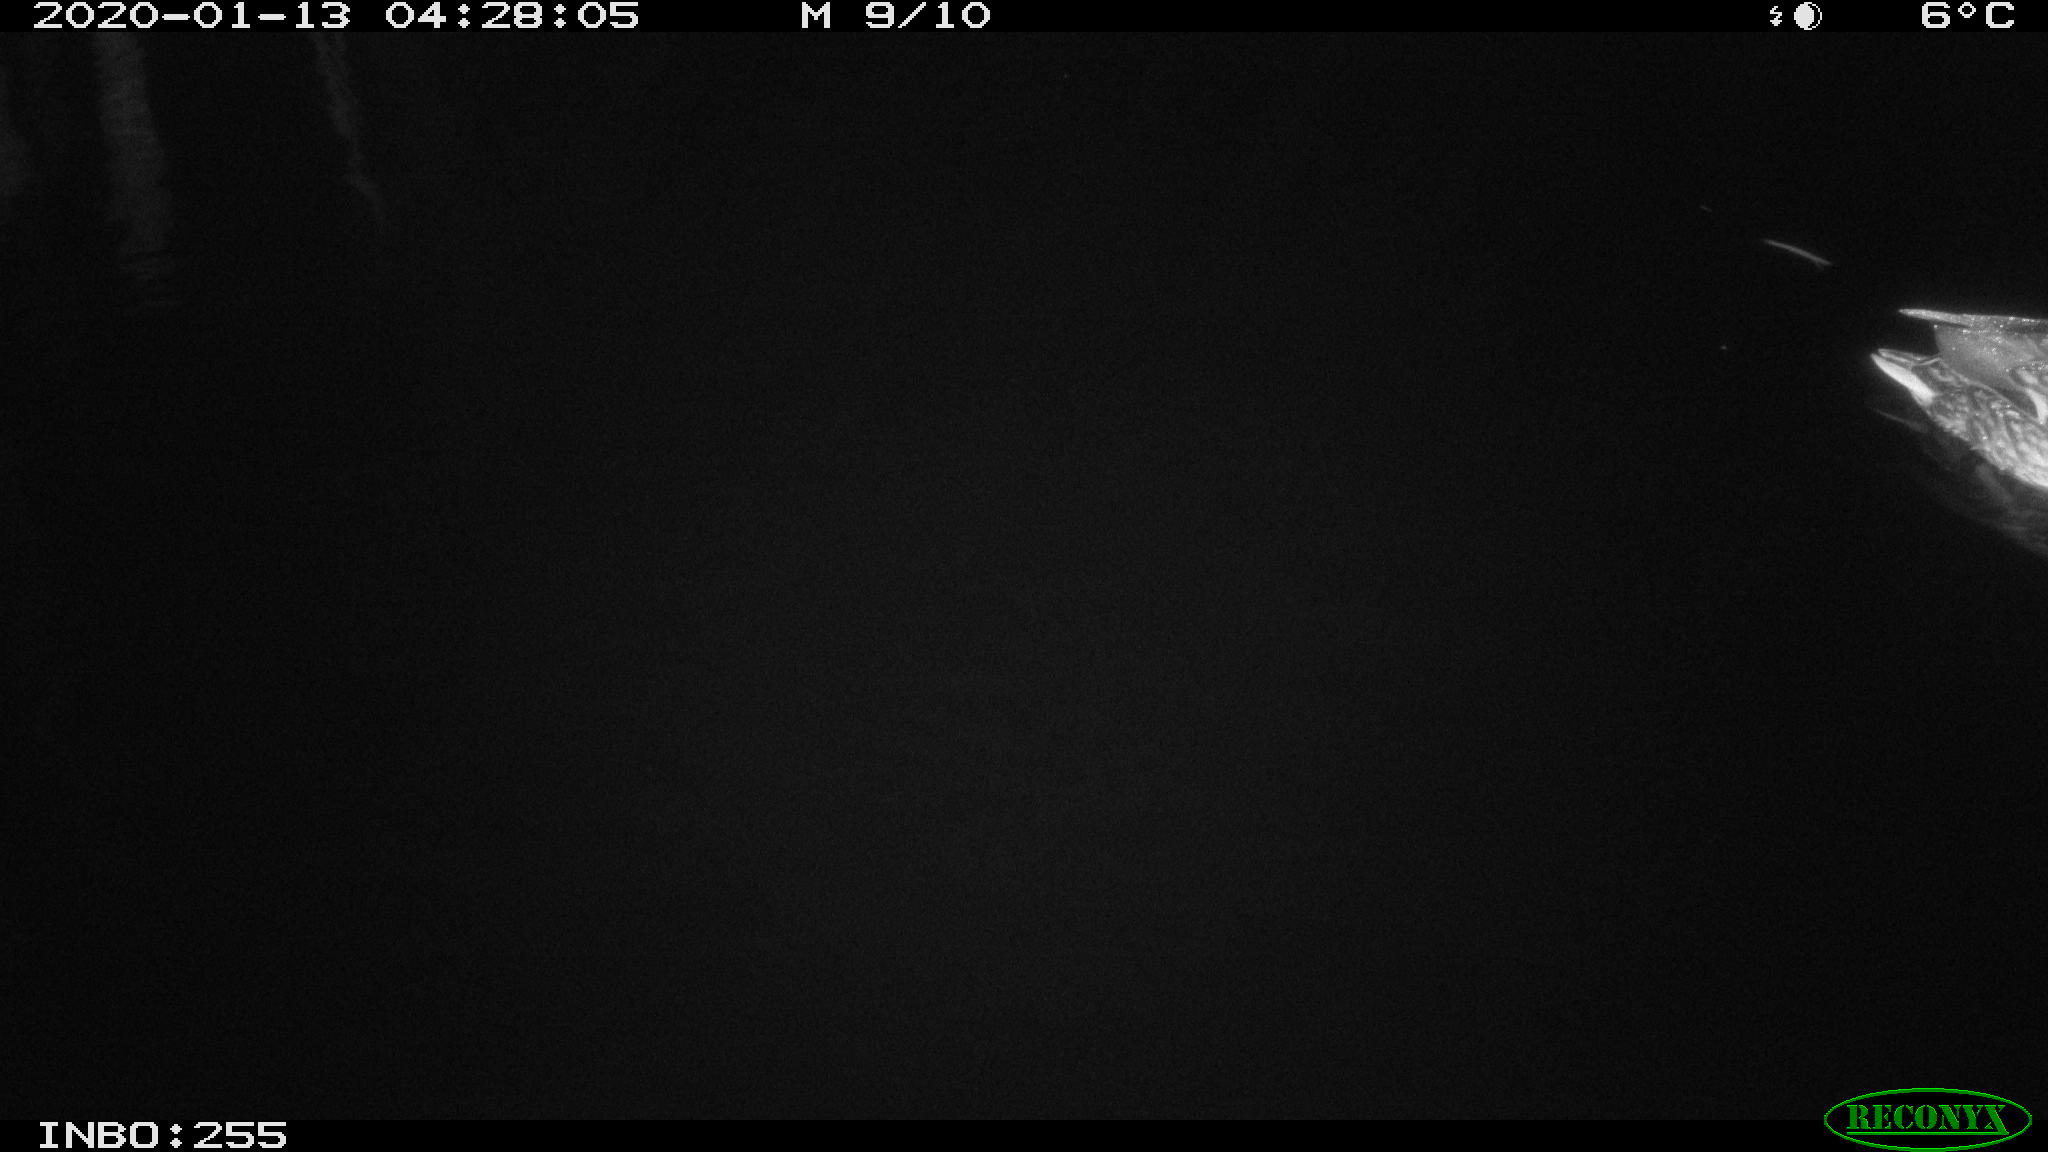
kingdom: Animalia
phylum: Chordata
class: Aves
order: Anseriformes
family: Anatidae
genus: Anas
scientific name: Anas platyrhynchos
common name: Mallard
